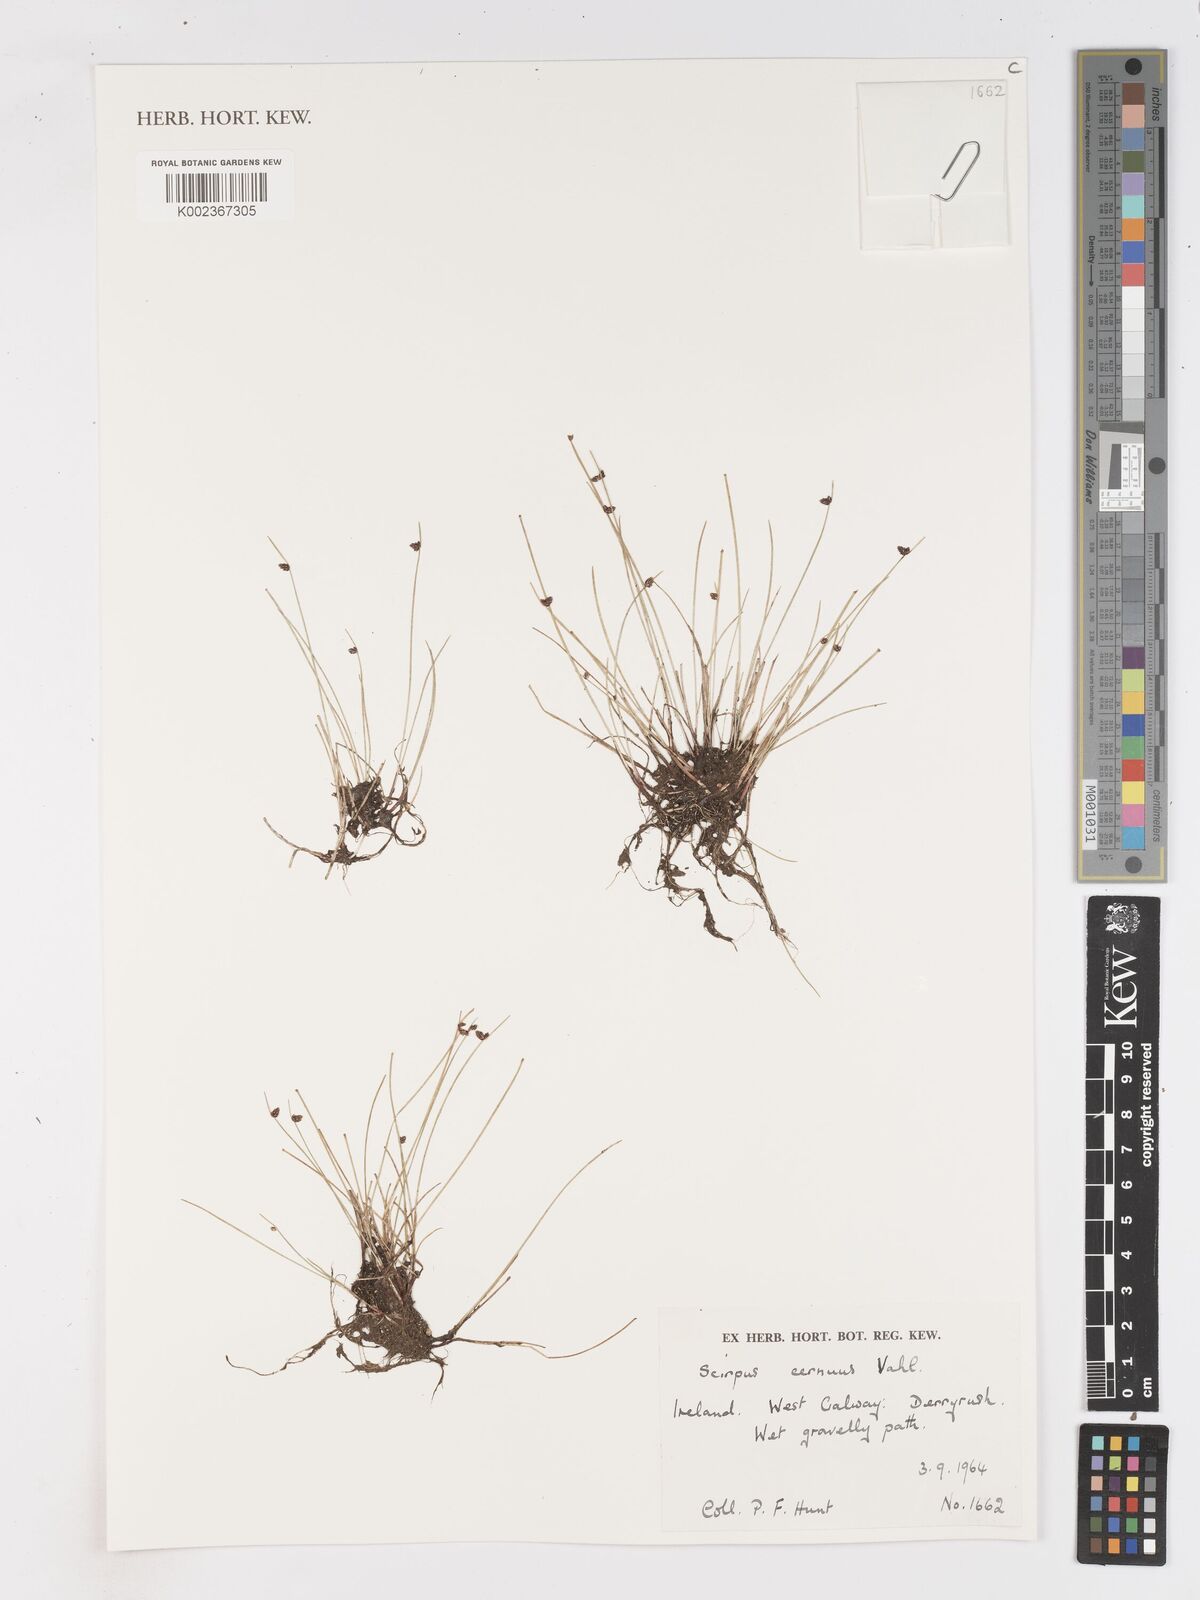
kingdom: Plantae
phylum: Tracheophyta
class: Liliopsida
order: Poales
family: Cyperaceae
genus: Isolepis
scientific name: Isolepis cernua
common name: Slender club-rush
